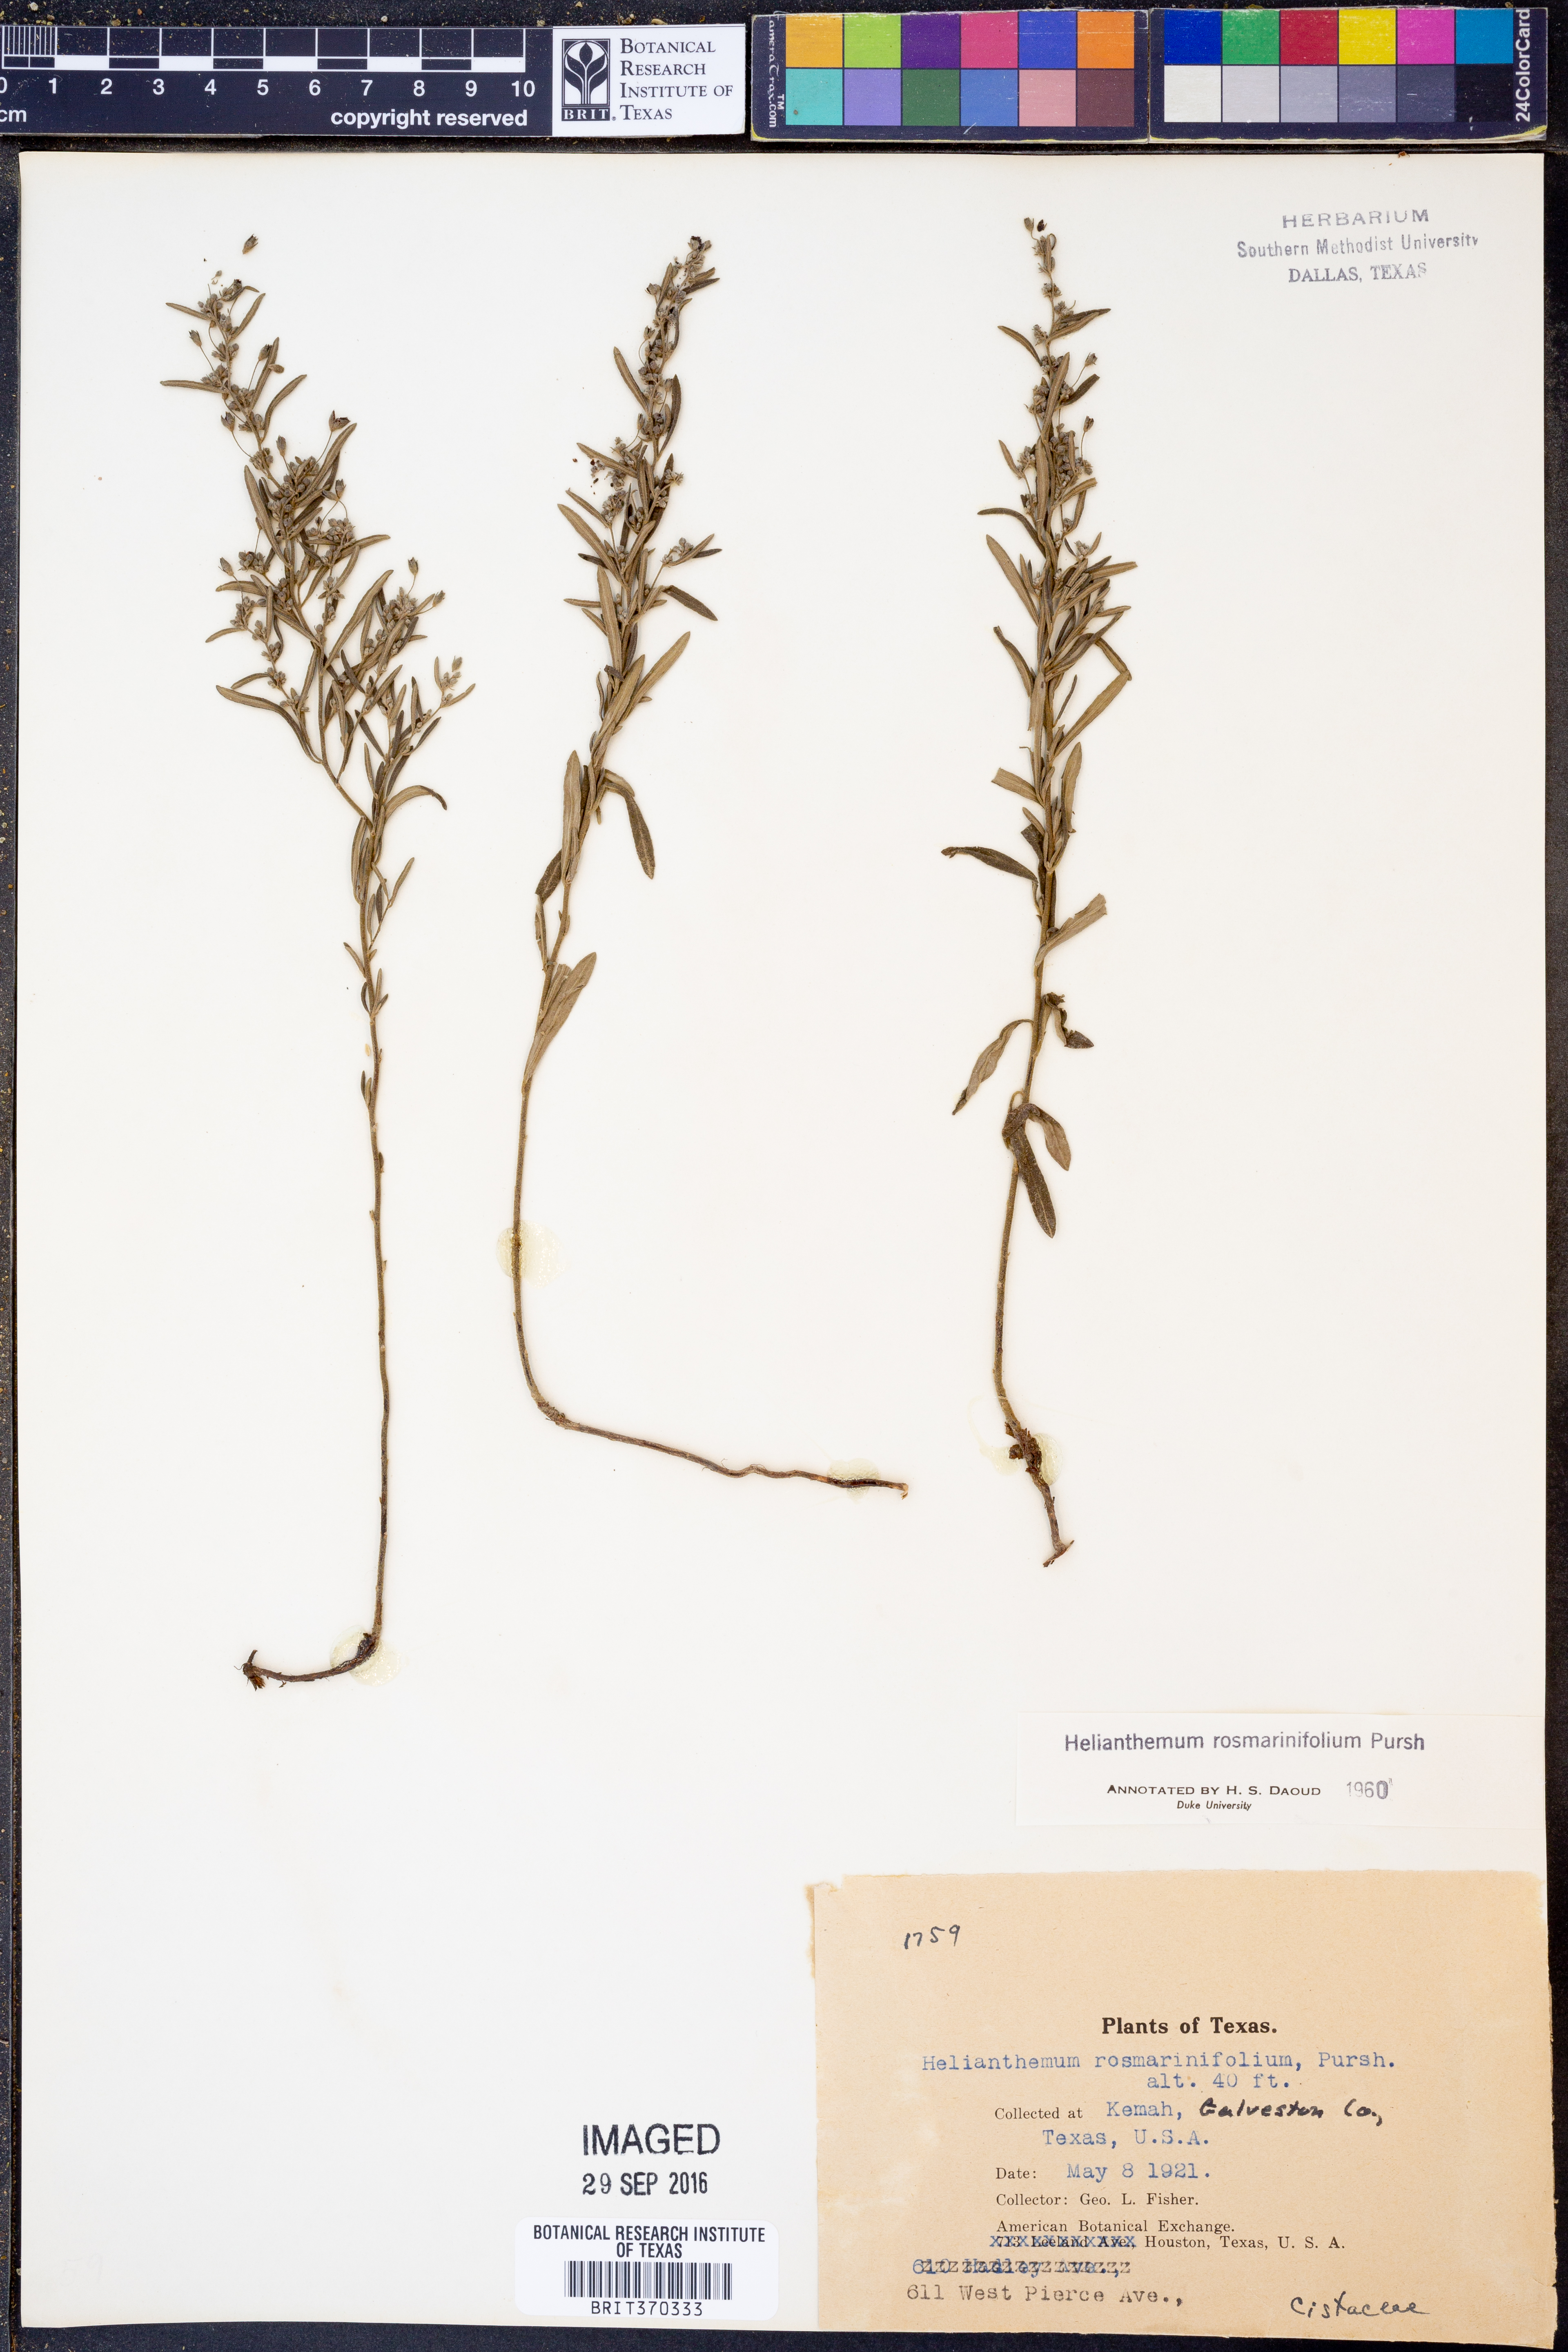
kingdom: Plantae
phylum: Tracheophyta
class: Magnoliopsida
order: Malvales
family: Cistaceae
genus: Crocanthemum
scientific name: Crocanthemum rosmarinifolium
